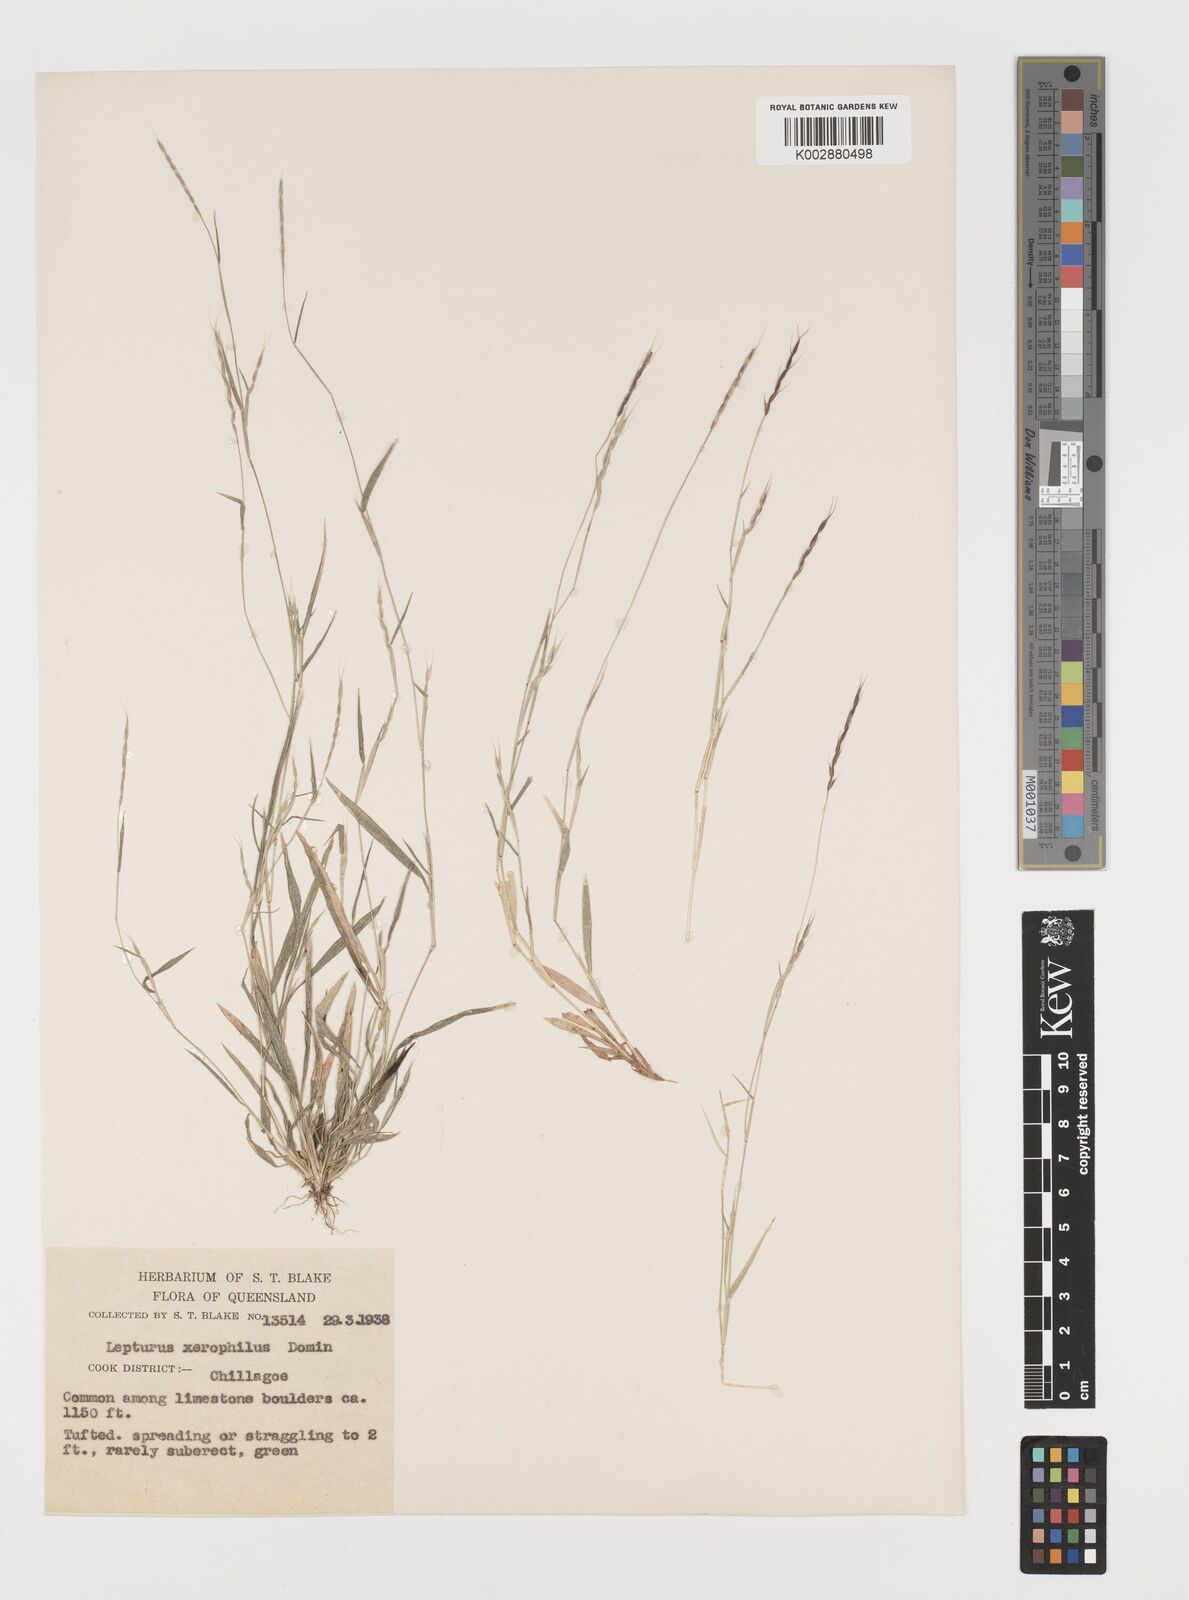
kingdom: Plantae
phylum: Tracheophyta
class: Liliopsida
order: Poales
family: Poaceae
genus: Lepturus
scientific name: Lepturus xerophilus
